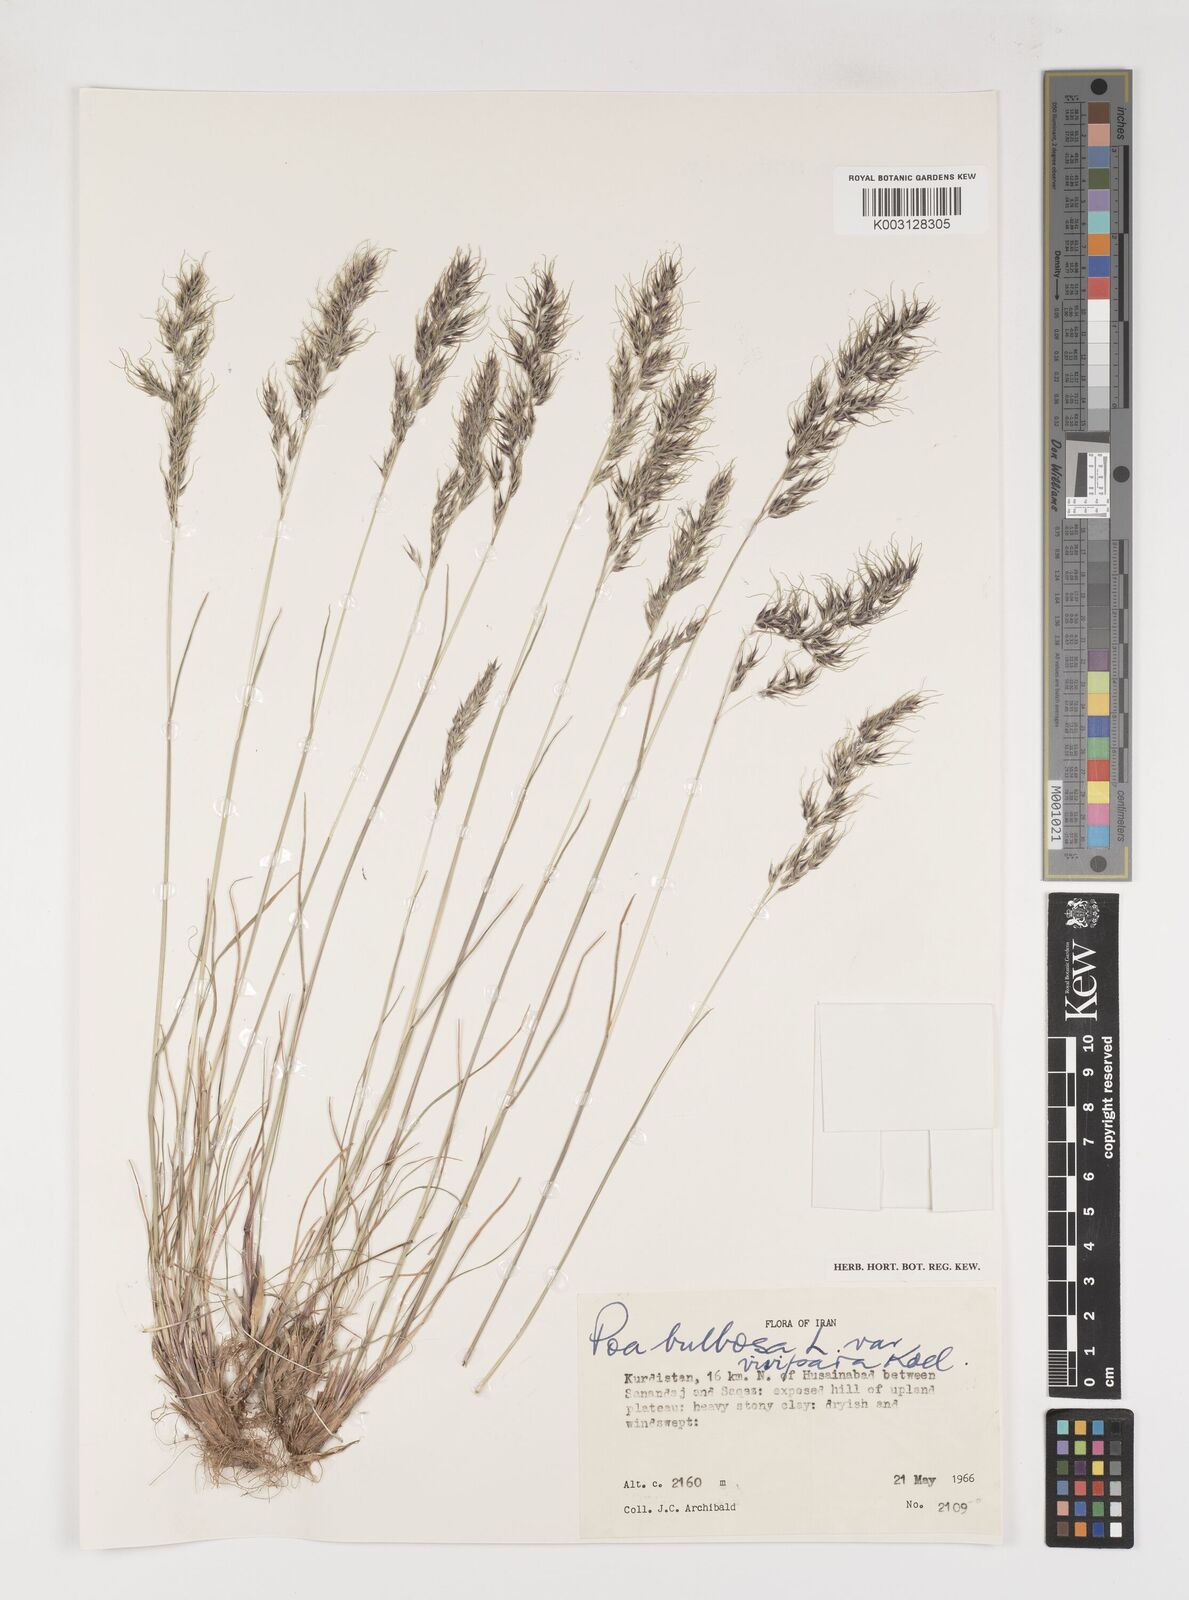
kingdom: Plantae
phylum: Tracheophyta
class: Liliopsida
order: Poales
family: Poaceae
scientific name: Poaceae
